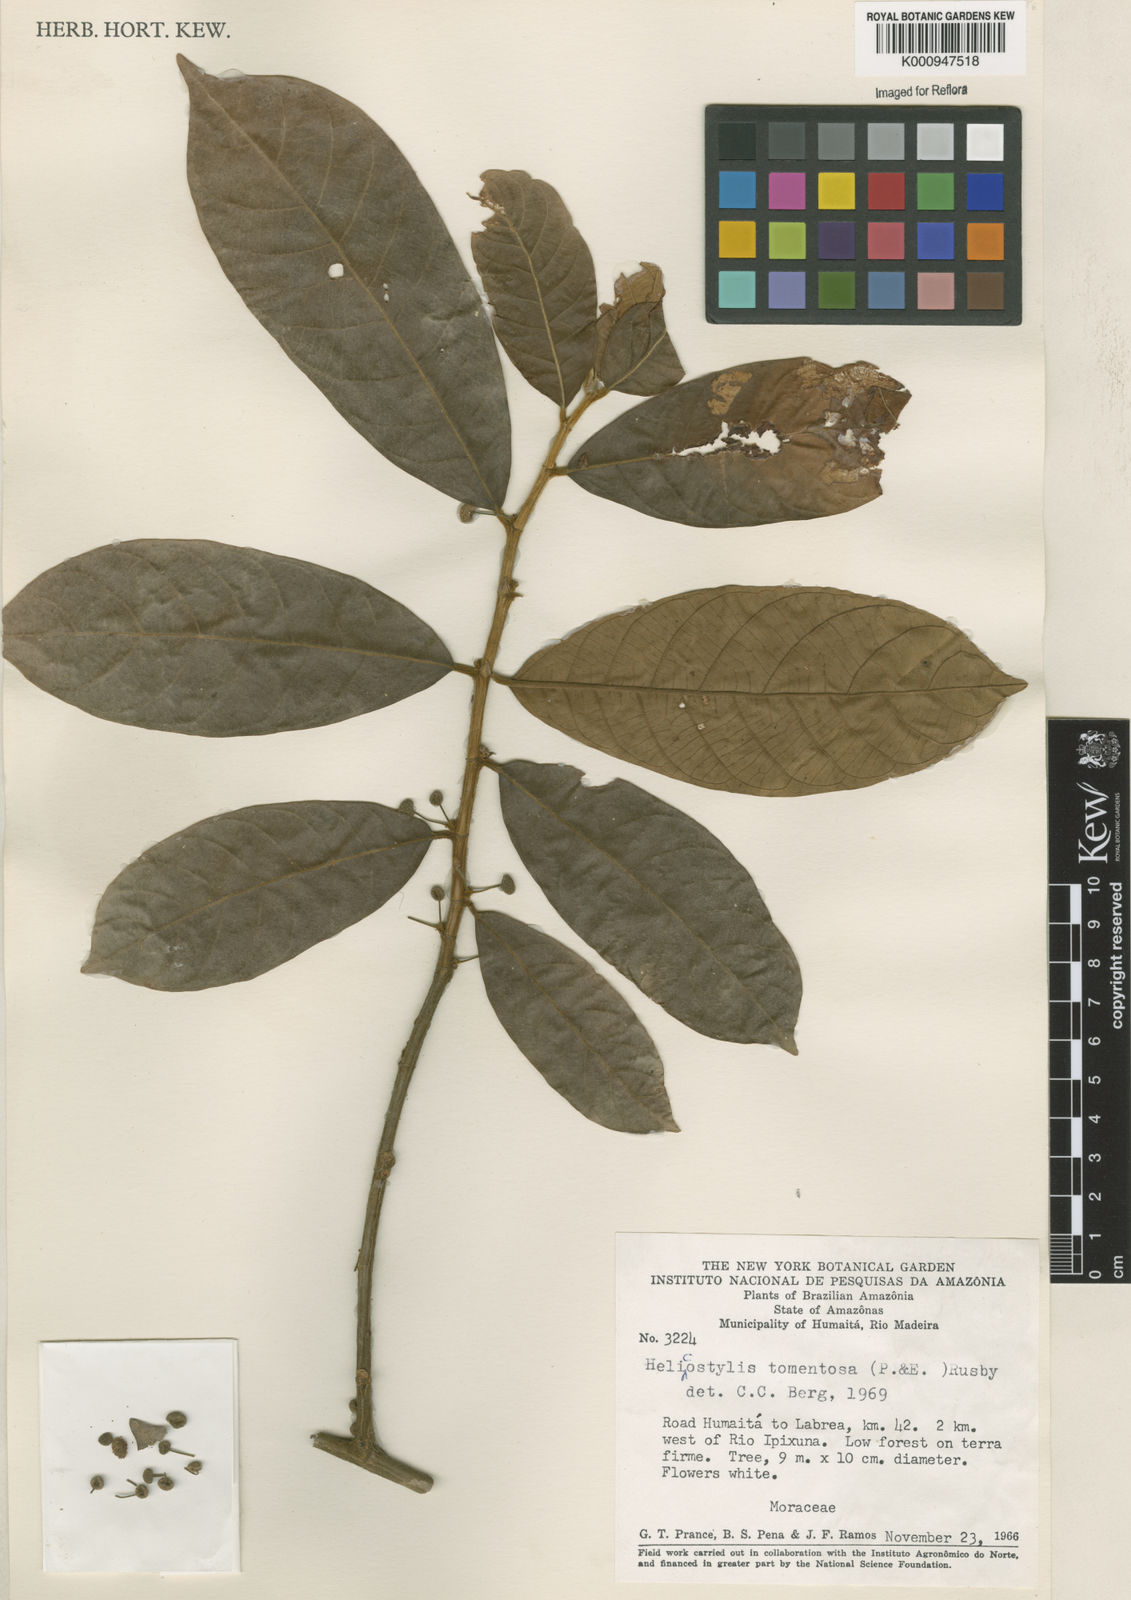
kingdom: Plantae
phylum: Tracheophyta
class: Magnoliopsida
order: Rosales
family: Moraceae
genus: Helicostylis
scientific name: Helicostylis
